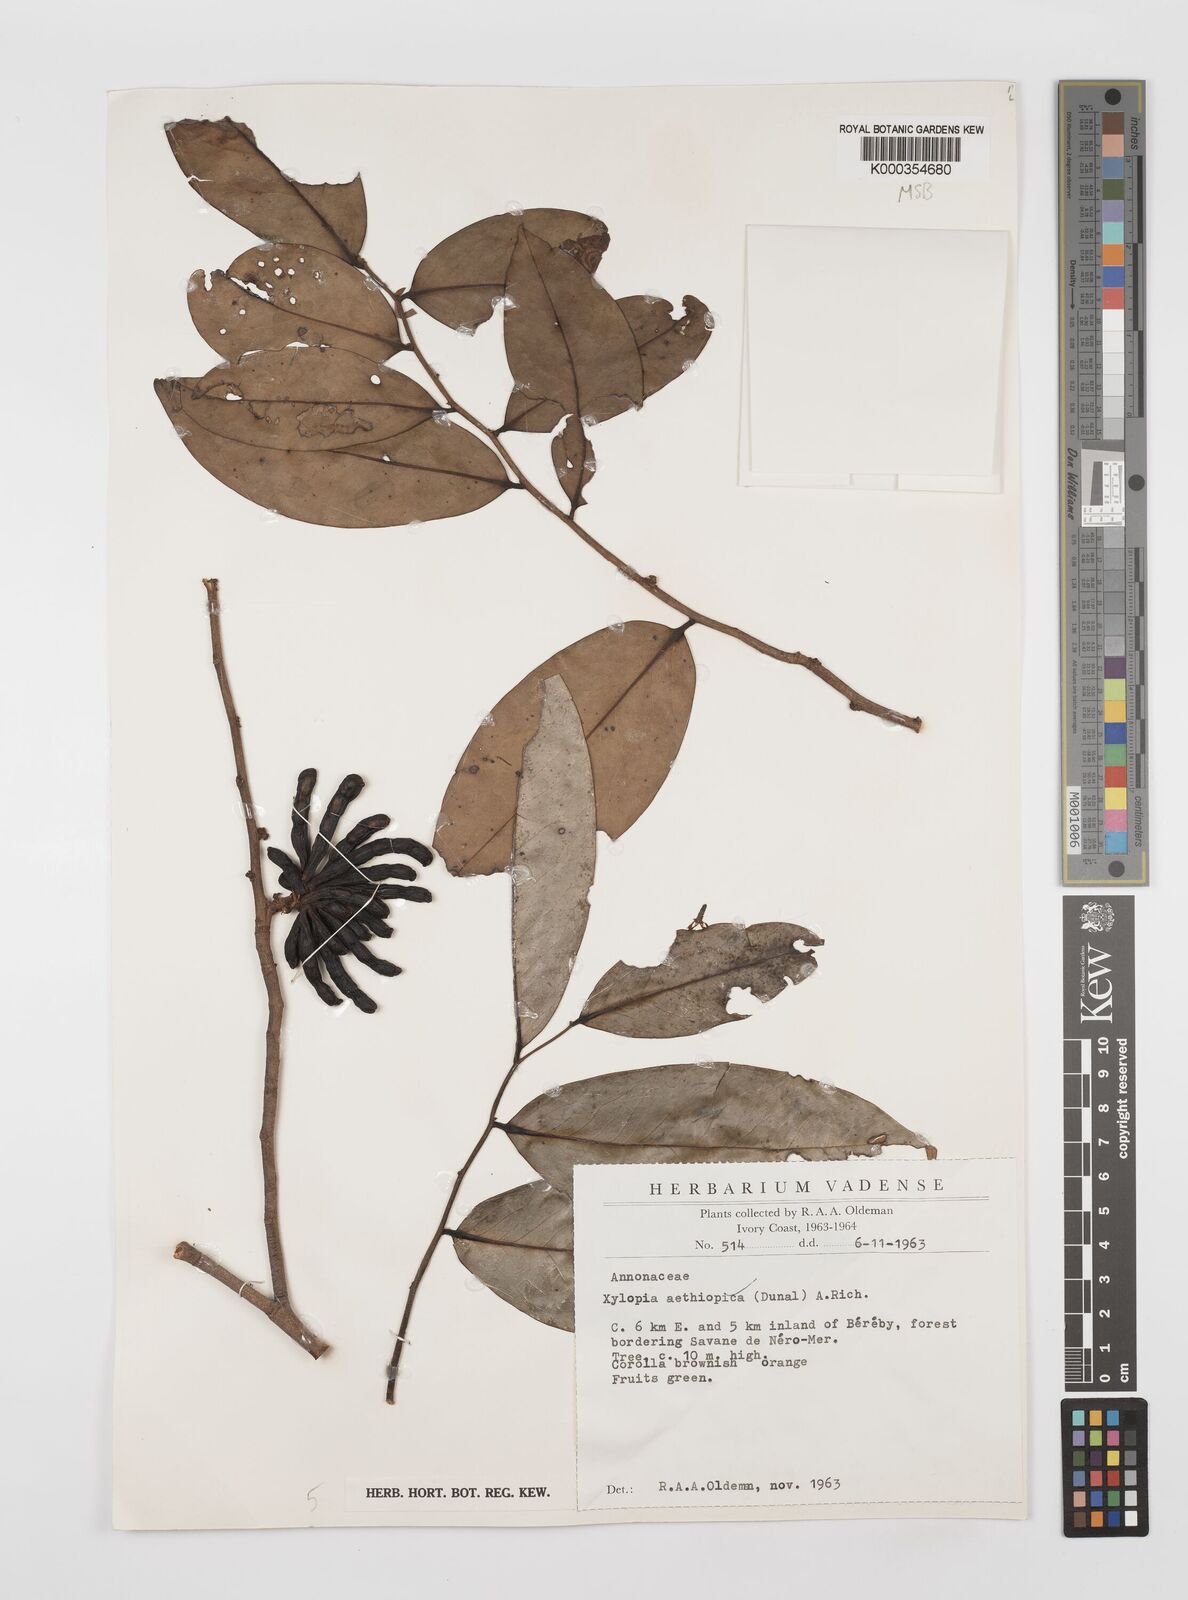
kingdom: Plantae
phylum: Tracheophyta
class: Magnoliopsida
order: Magnoliales
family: Annonaceae
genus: Xylopia
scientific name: Xylopia aethiopica
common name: Ethiopian-pepper
